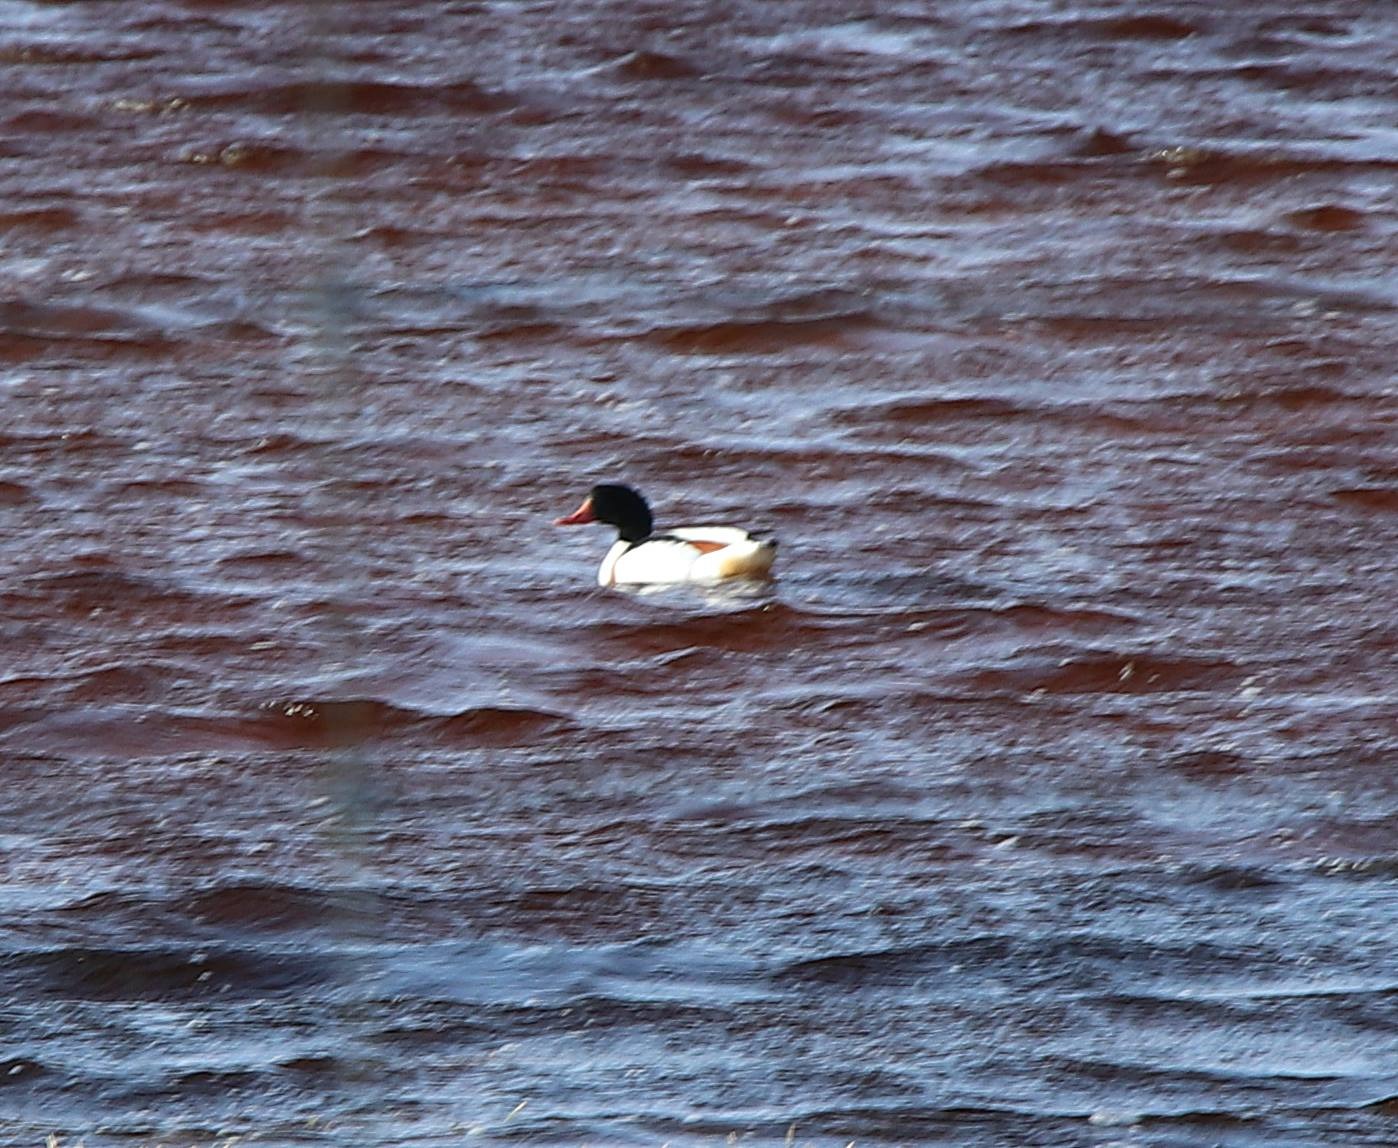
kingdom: Animalia
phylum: Chordata
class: Aves
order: Anseriformes
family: Anatidae
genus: Tadorna
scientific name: Tadorna tadorna
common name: Gravand
